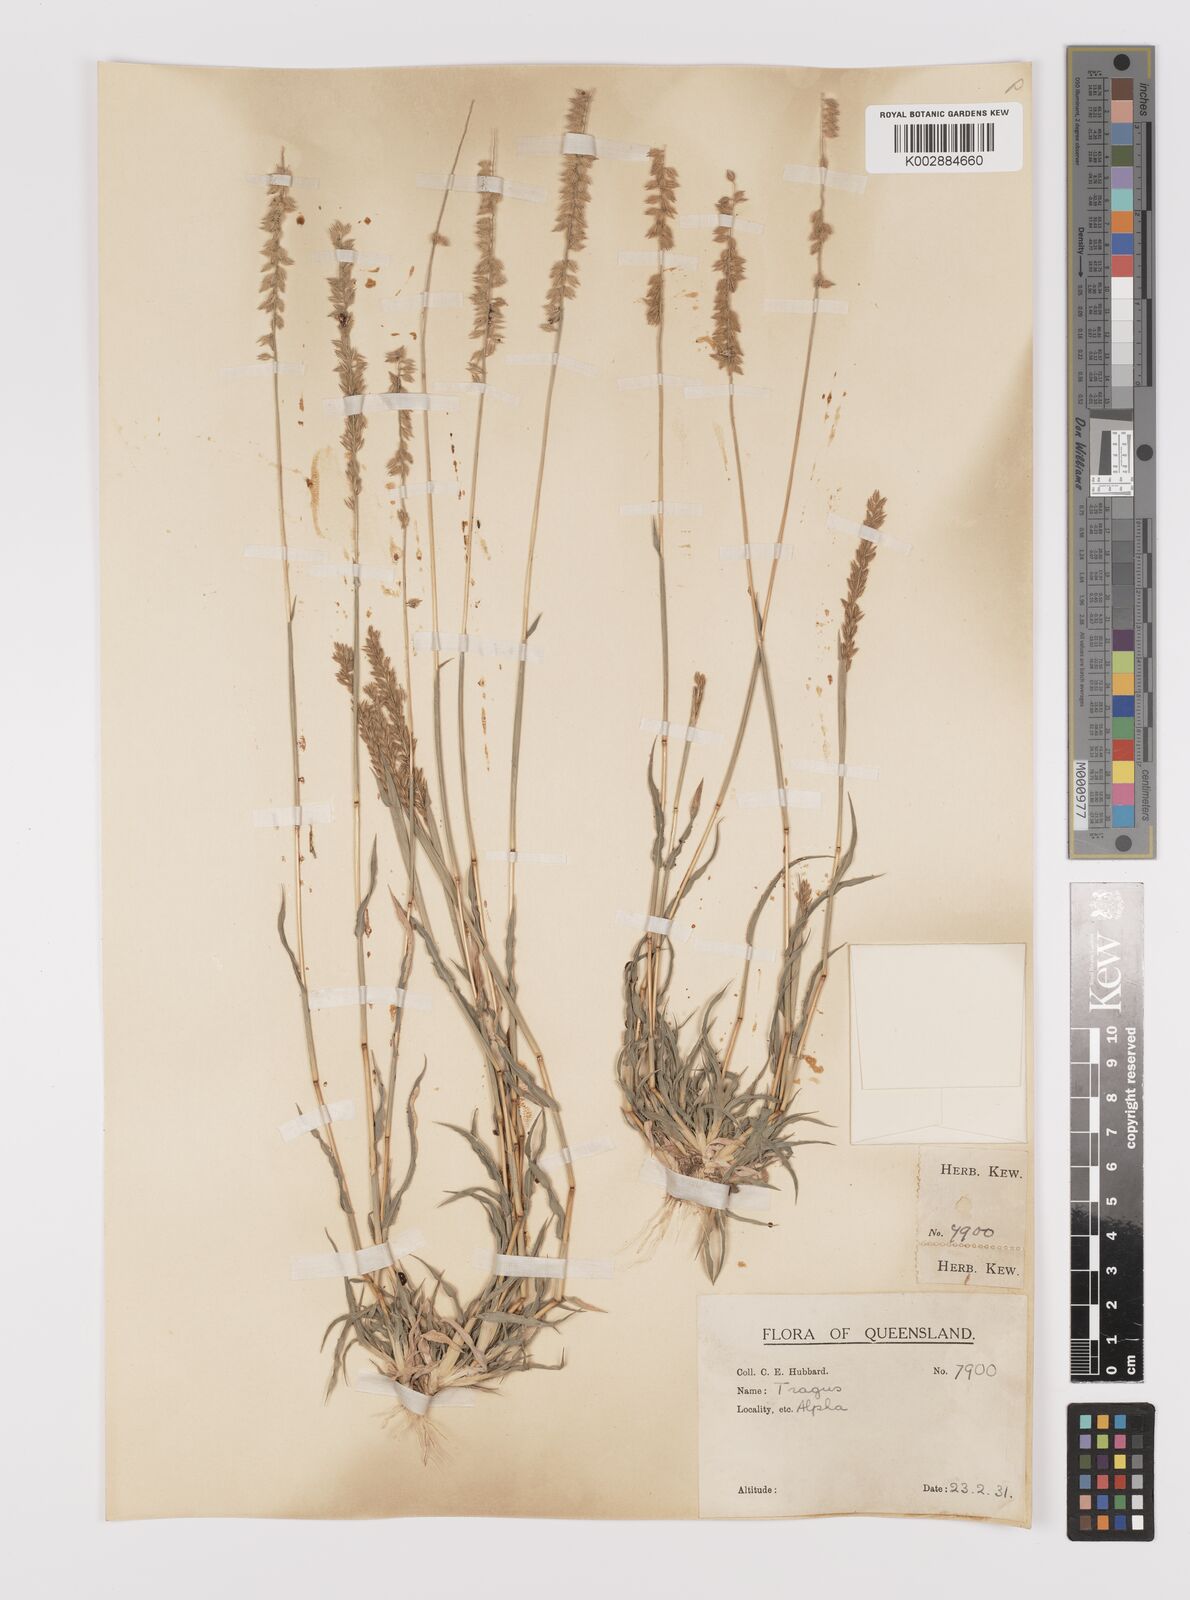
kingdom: Plantae
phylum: Tracheophyta
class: Liliopsida
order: Poales
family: Poaceae
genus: Tragus
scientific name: Tragus australianus
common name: Australian bur-grass
